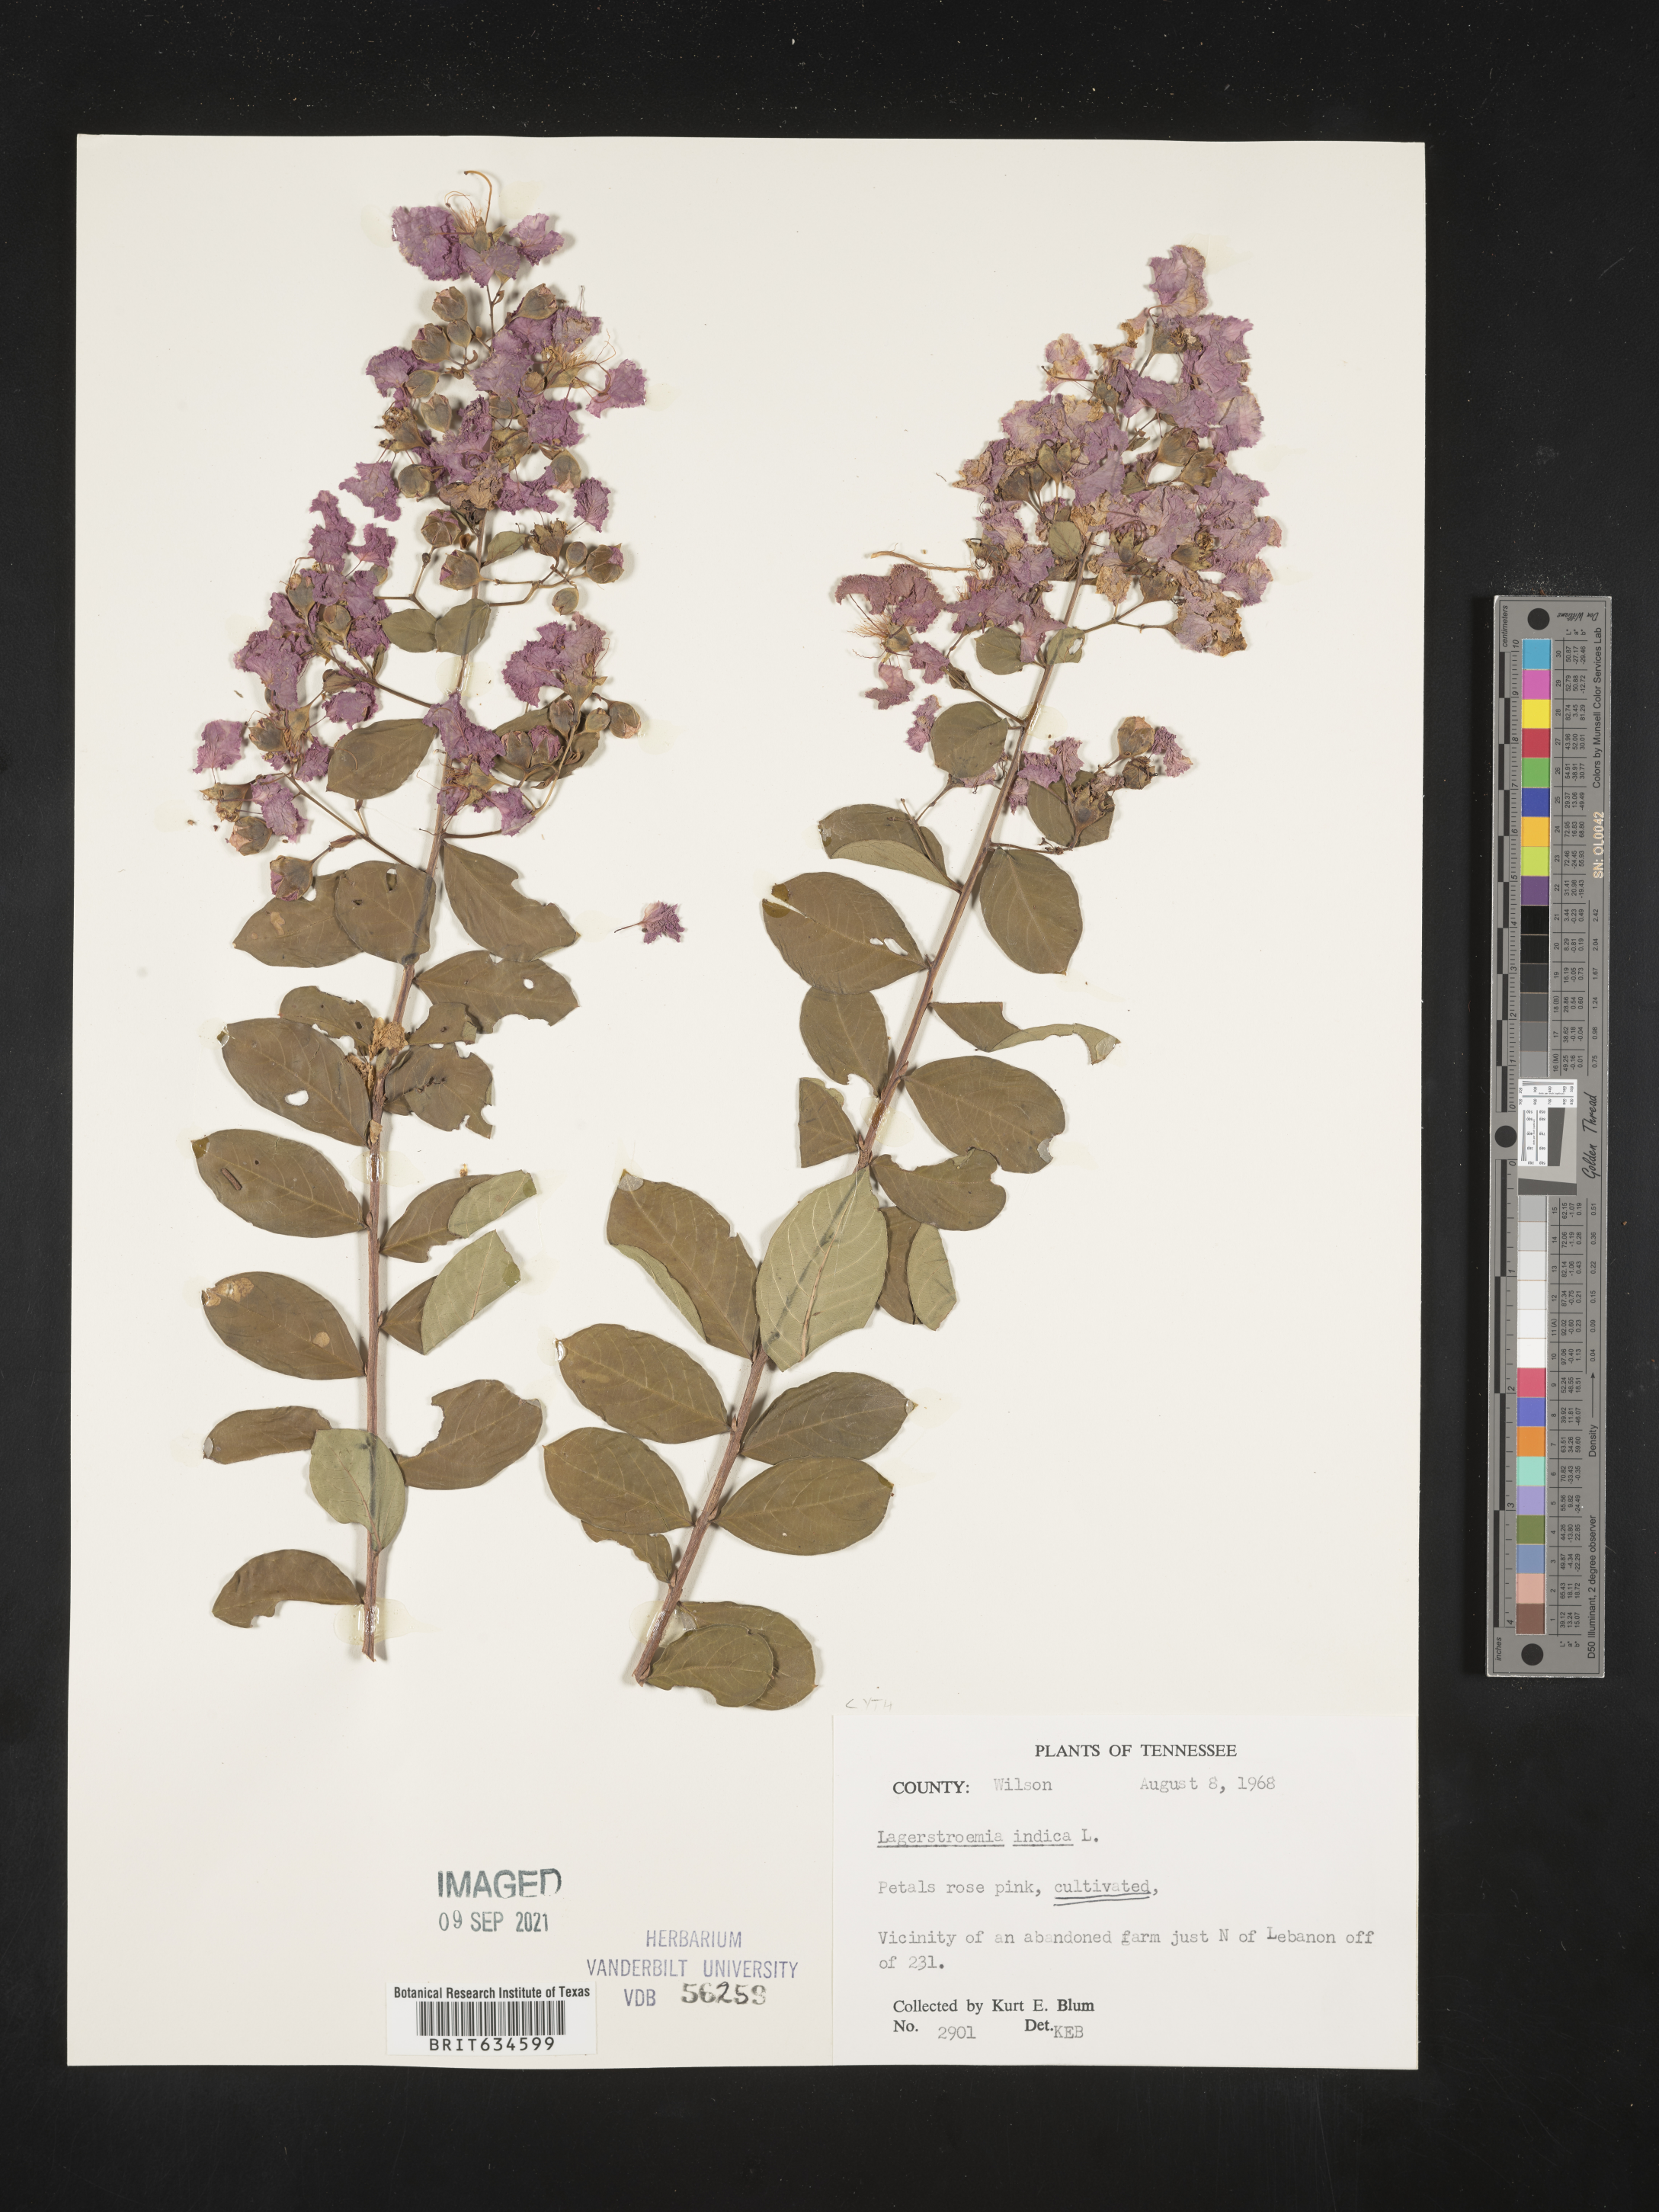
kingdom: Plantae
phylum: Tracheophyta
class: Magnoliopsida
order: Myrtales
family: Lythraceae
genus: Lagerstroemia
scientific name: Lagerstroemia
